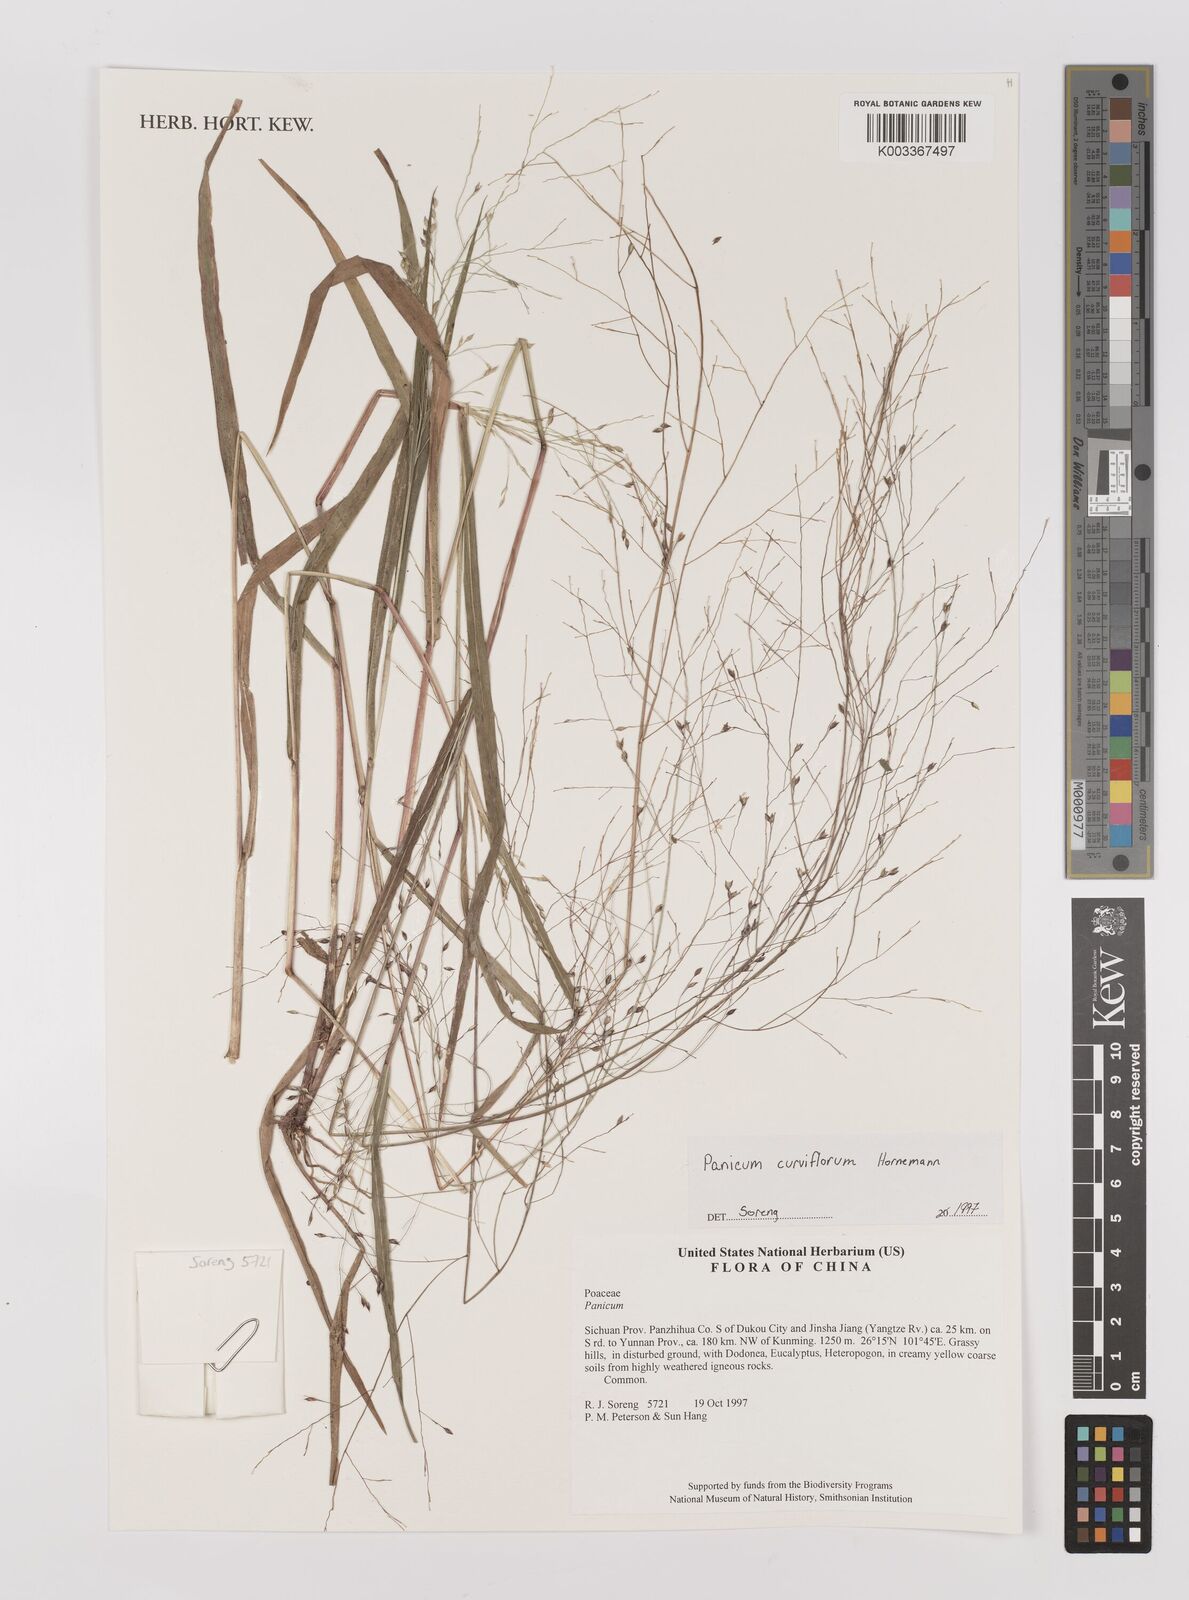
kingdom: Plantae
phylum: Tracheophyta
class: Liliopsida
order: Poales
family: Poaceae
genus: Panicum
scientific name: Panicum curviflorum
